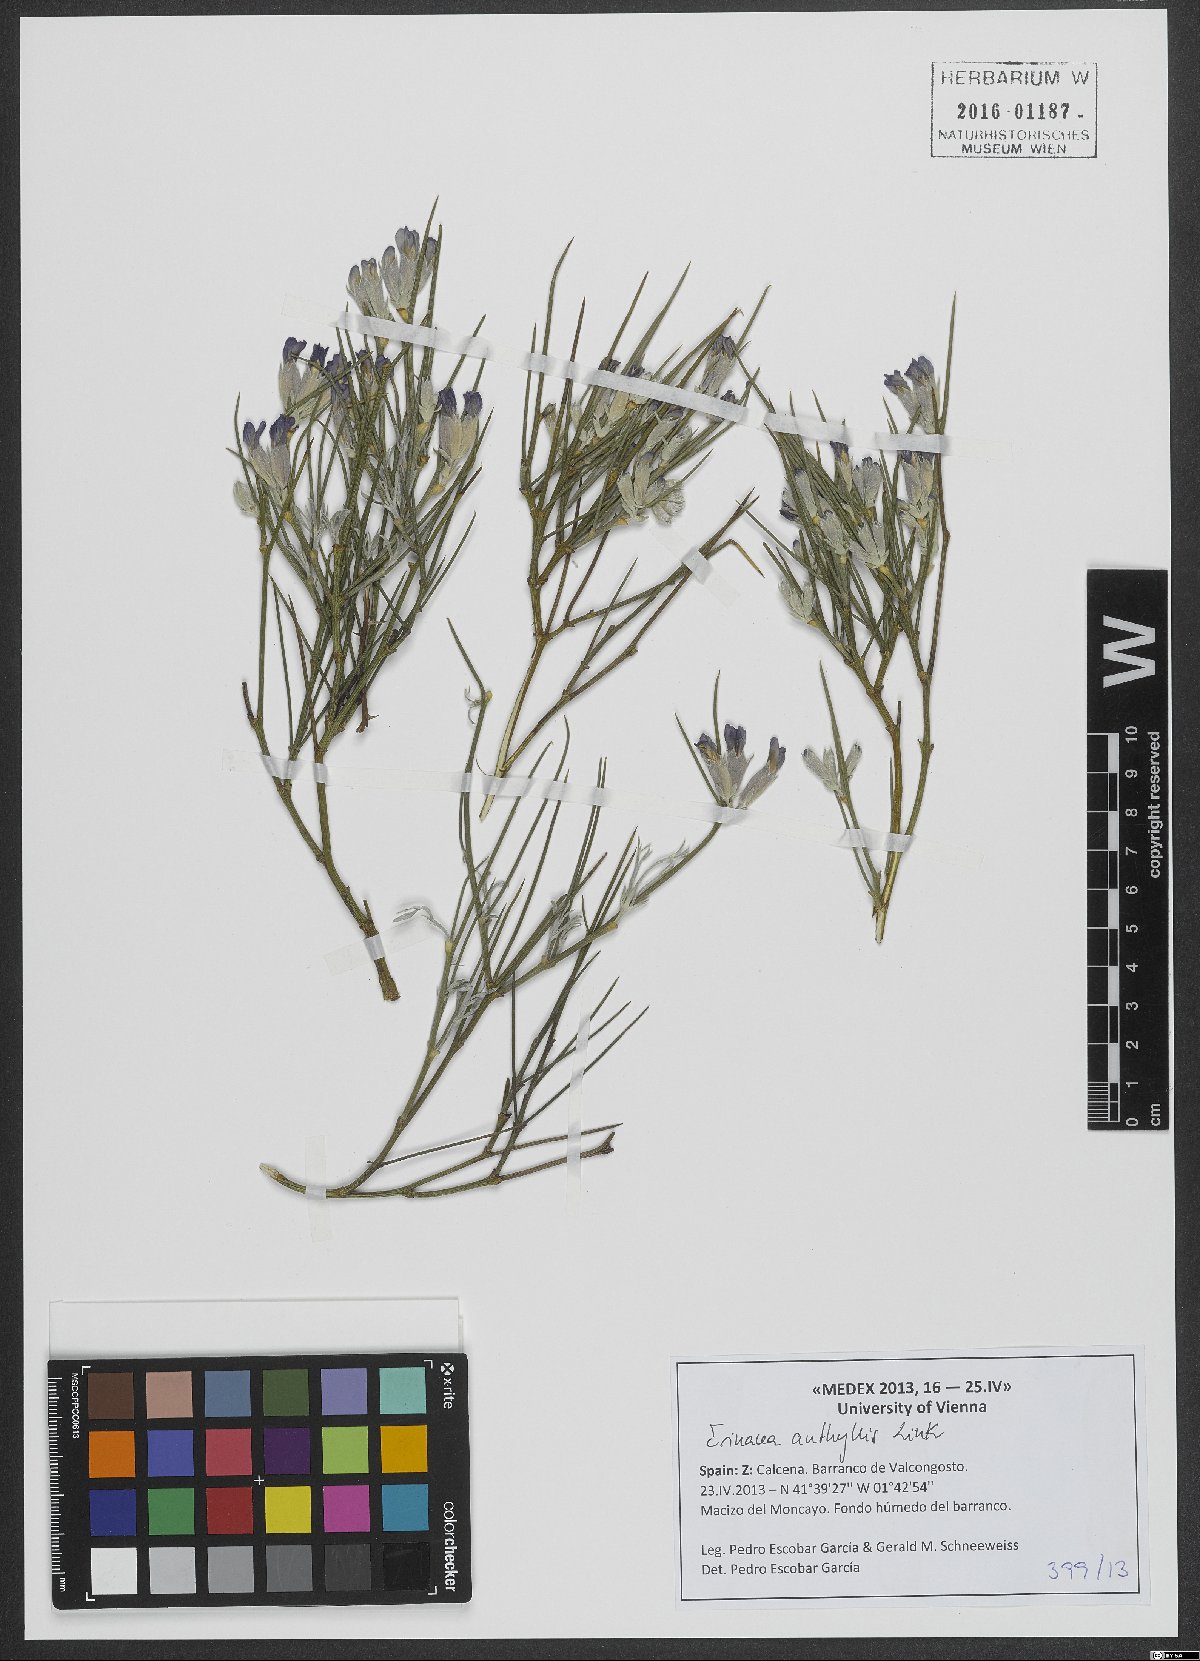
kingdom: Plantae
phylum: Tracheophyta
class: Magnoliopsida
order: Fabales
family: Fabaceae
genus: Erinacea
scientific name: Erinacea anthyllis
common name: Hedgehog-broom
